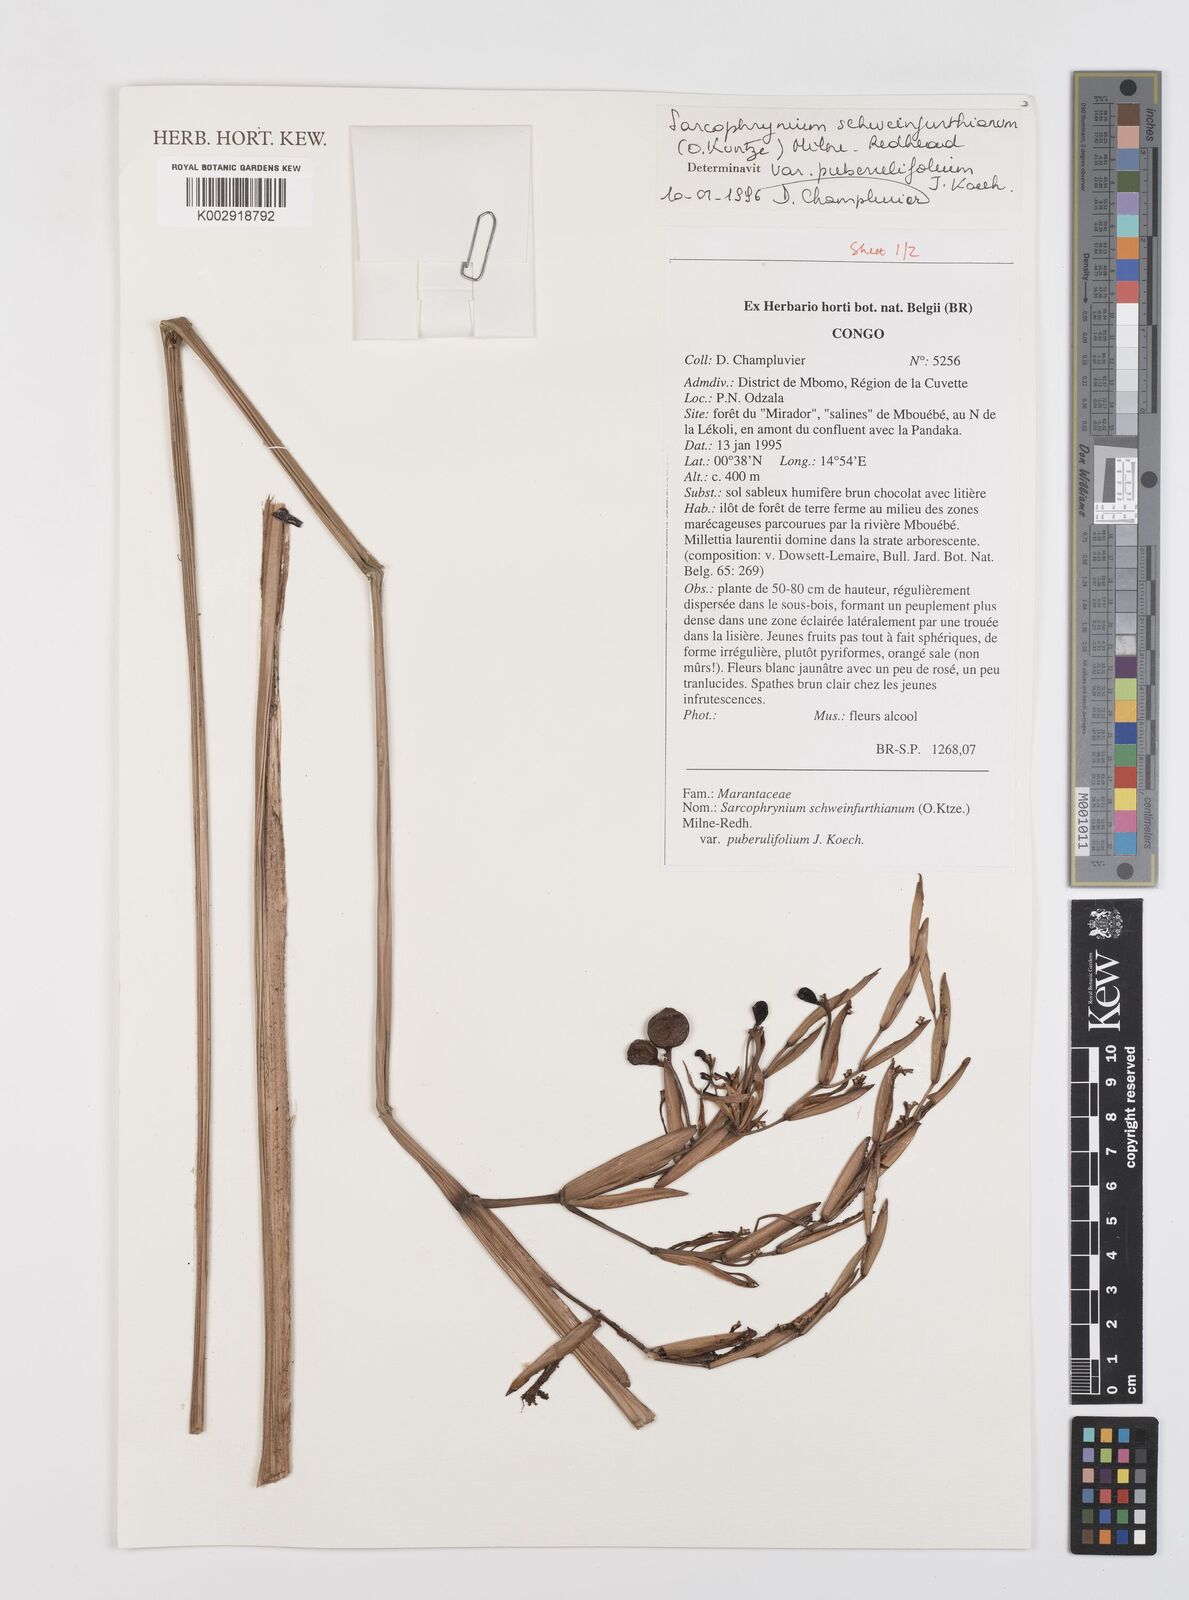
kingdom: Plantae
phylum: Tracheophyta
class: Liliopsida
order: Zingiberales
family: Marantaceae
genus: Sarcophrynium
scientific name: Sarcophrynium schweinfurthianum
